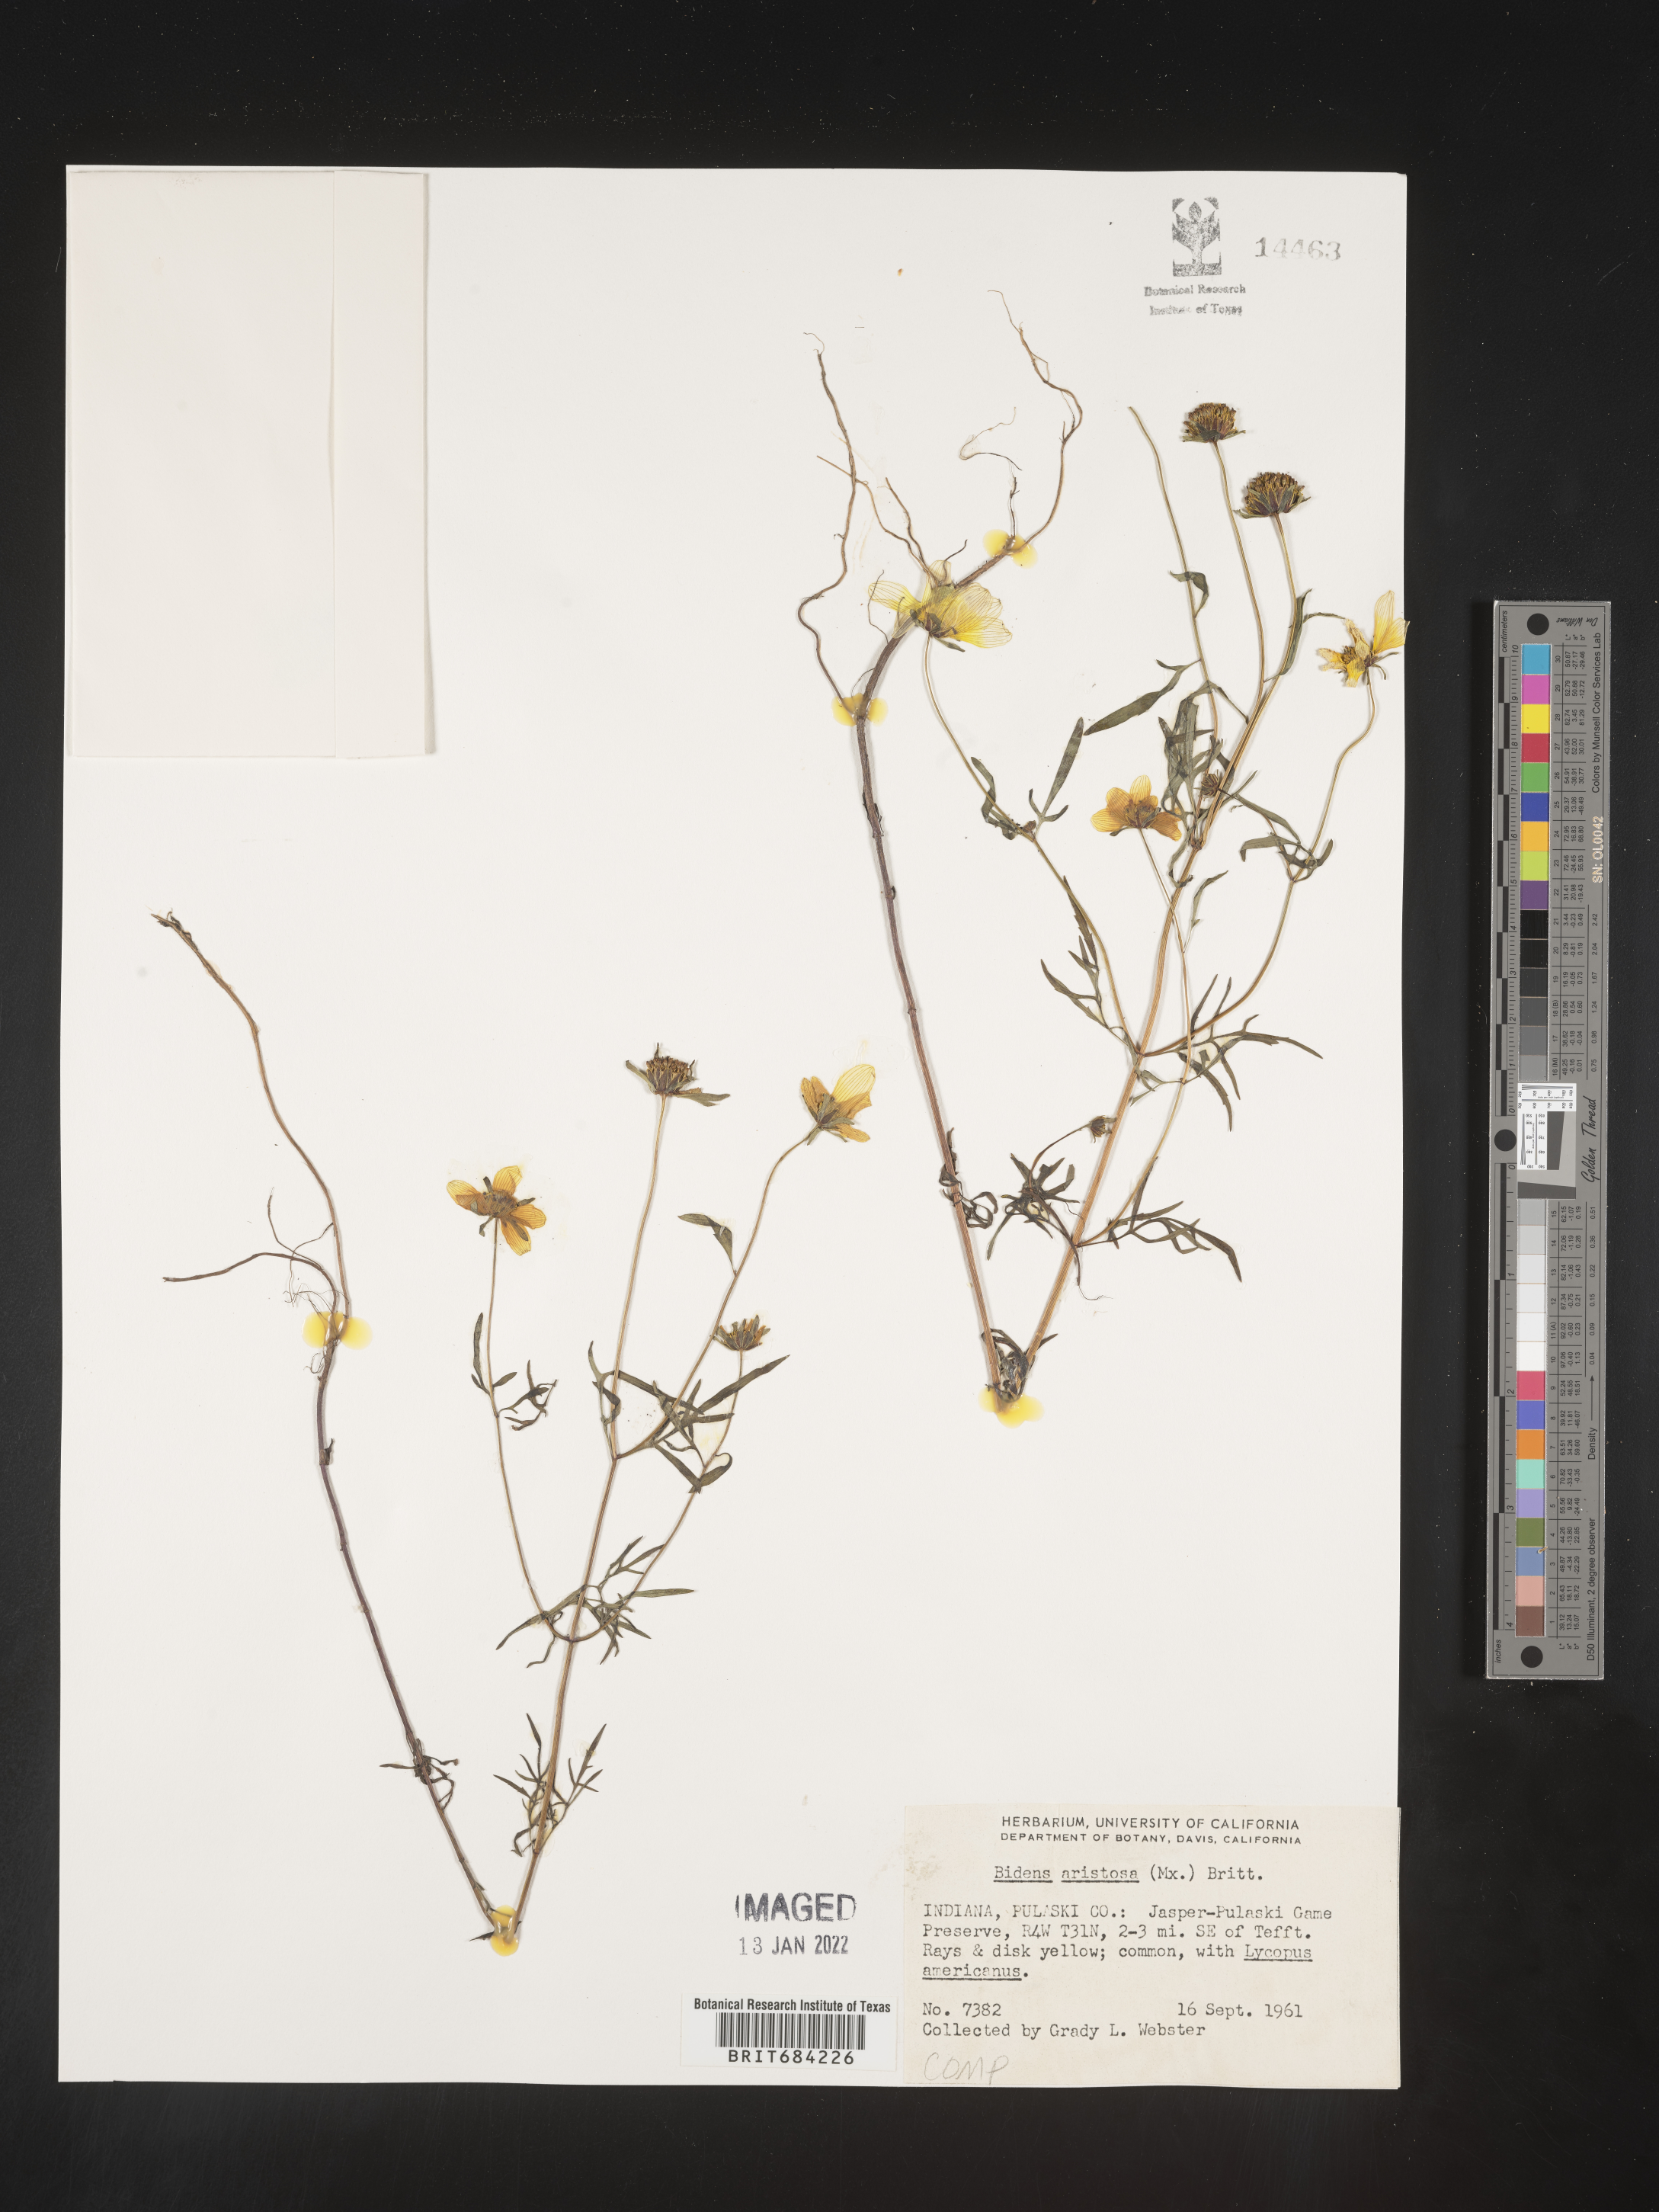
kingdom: Plantae
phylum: Tracheophyta
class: Magnoliopsida
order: Asterales
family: Asteraceae
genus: Bidens
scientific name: Bidens aristosa
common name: Western tickseed
